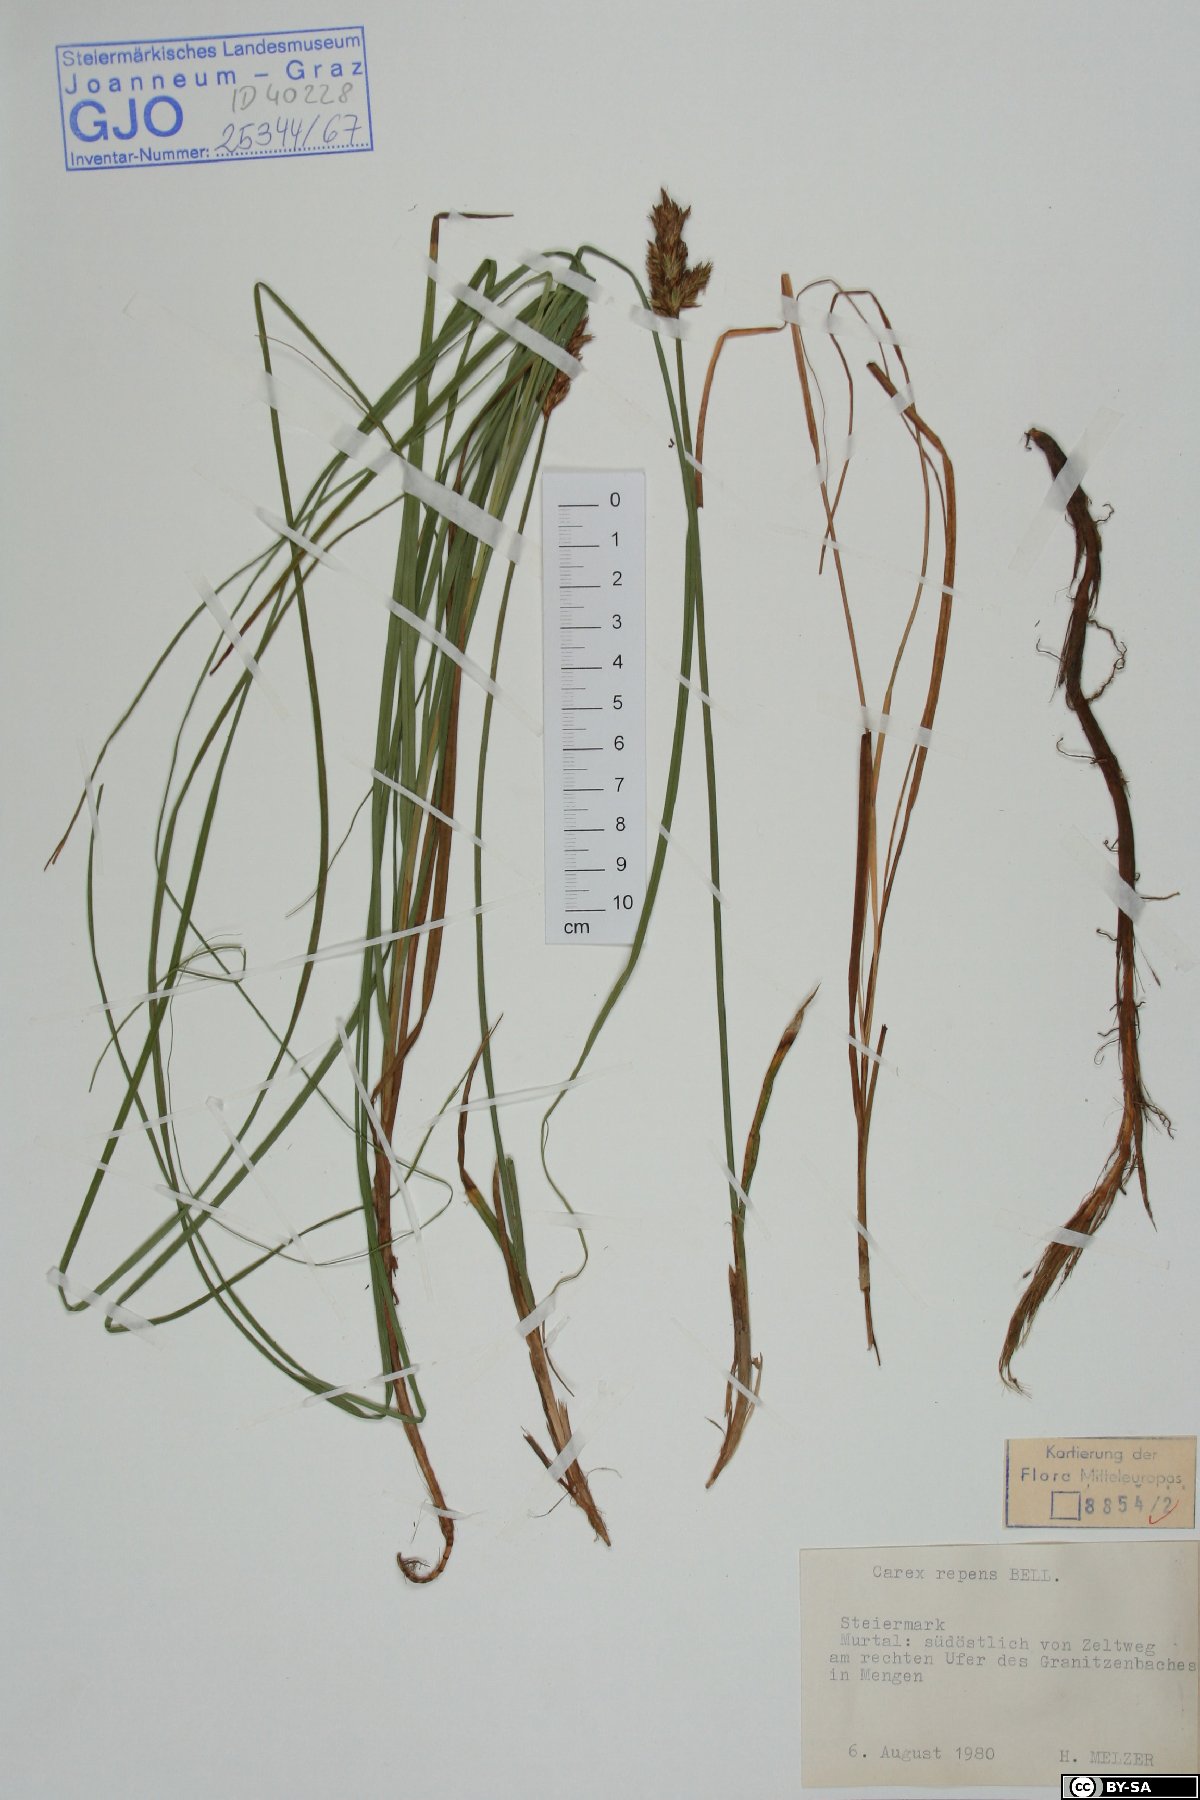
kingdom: Plantae
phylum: Tracheophyta
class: Liliopsida
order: Poales
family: Cyperaceae
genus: Carex
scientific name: Carex repens
